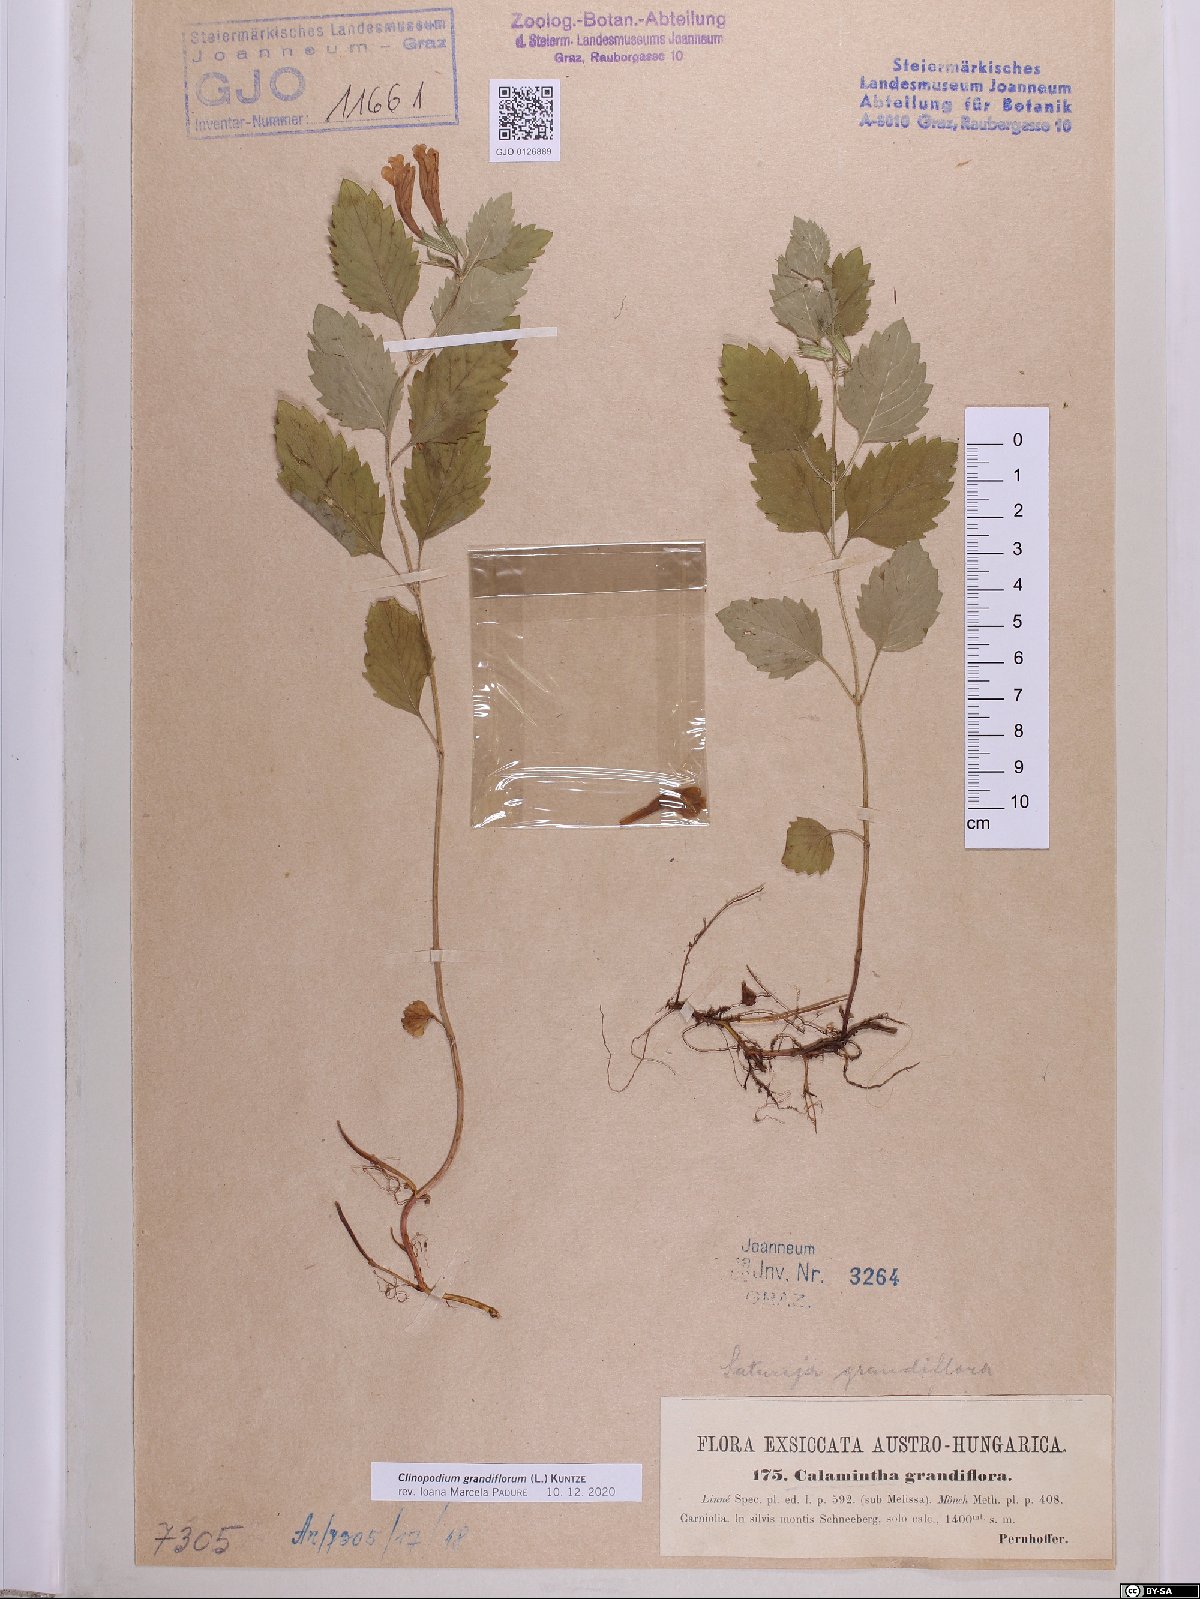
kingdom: Plantae
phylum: Tracheophyta
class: Magnoliopsida
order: Lamiales
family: Lamiaceae
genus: Clinopodium
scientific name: Clinopodium grandiflorum
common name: Greater calamint
